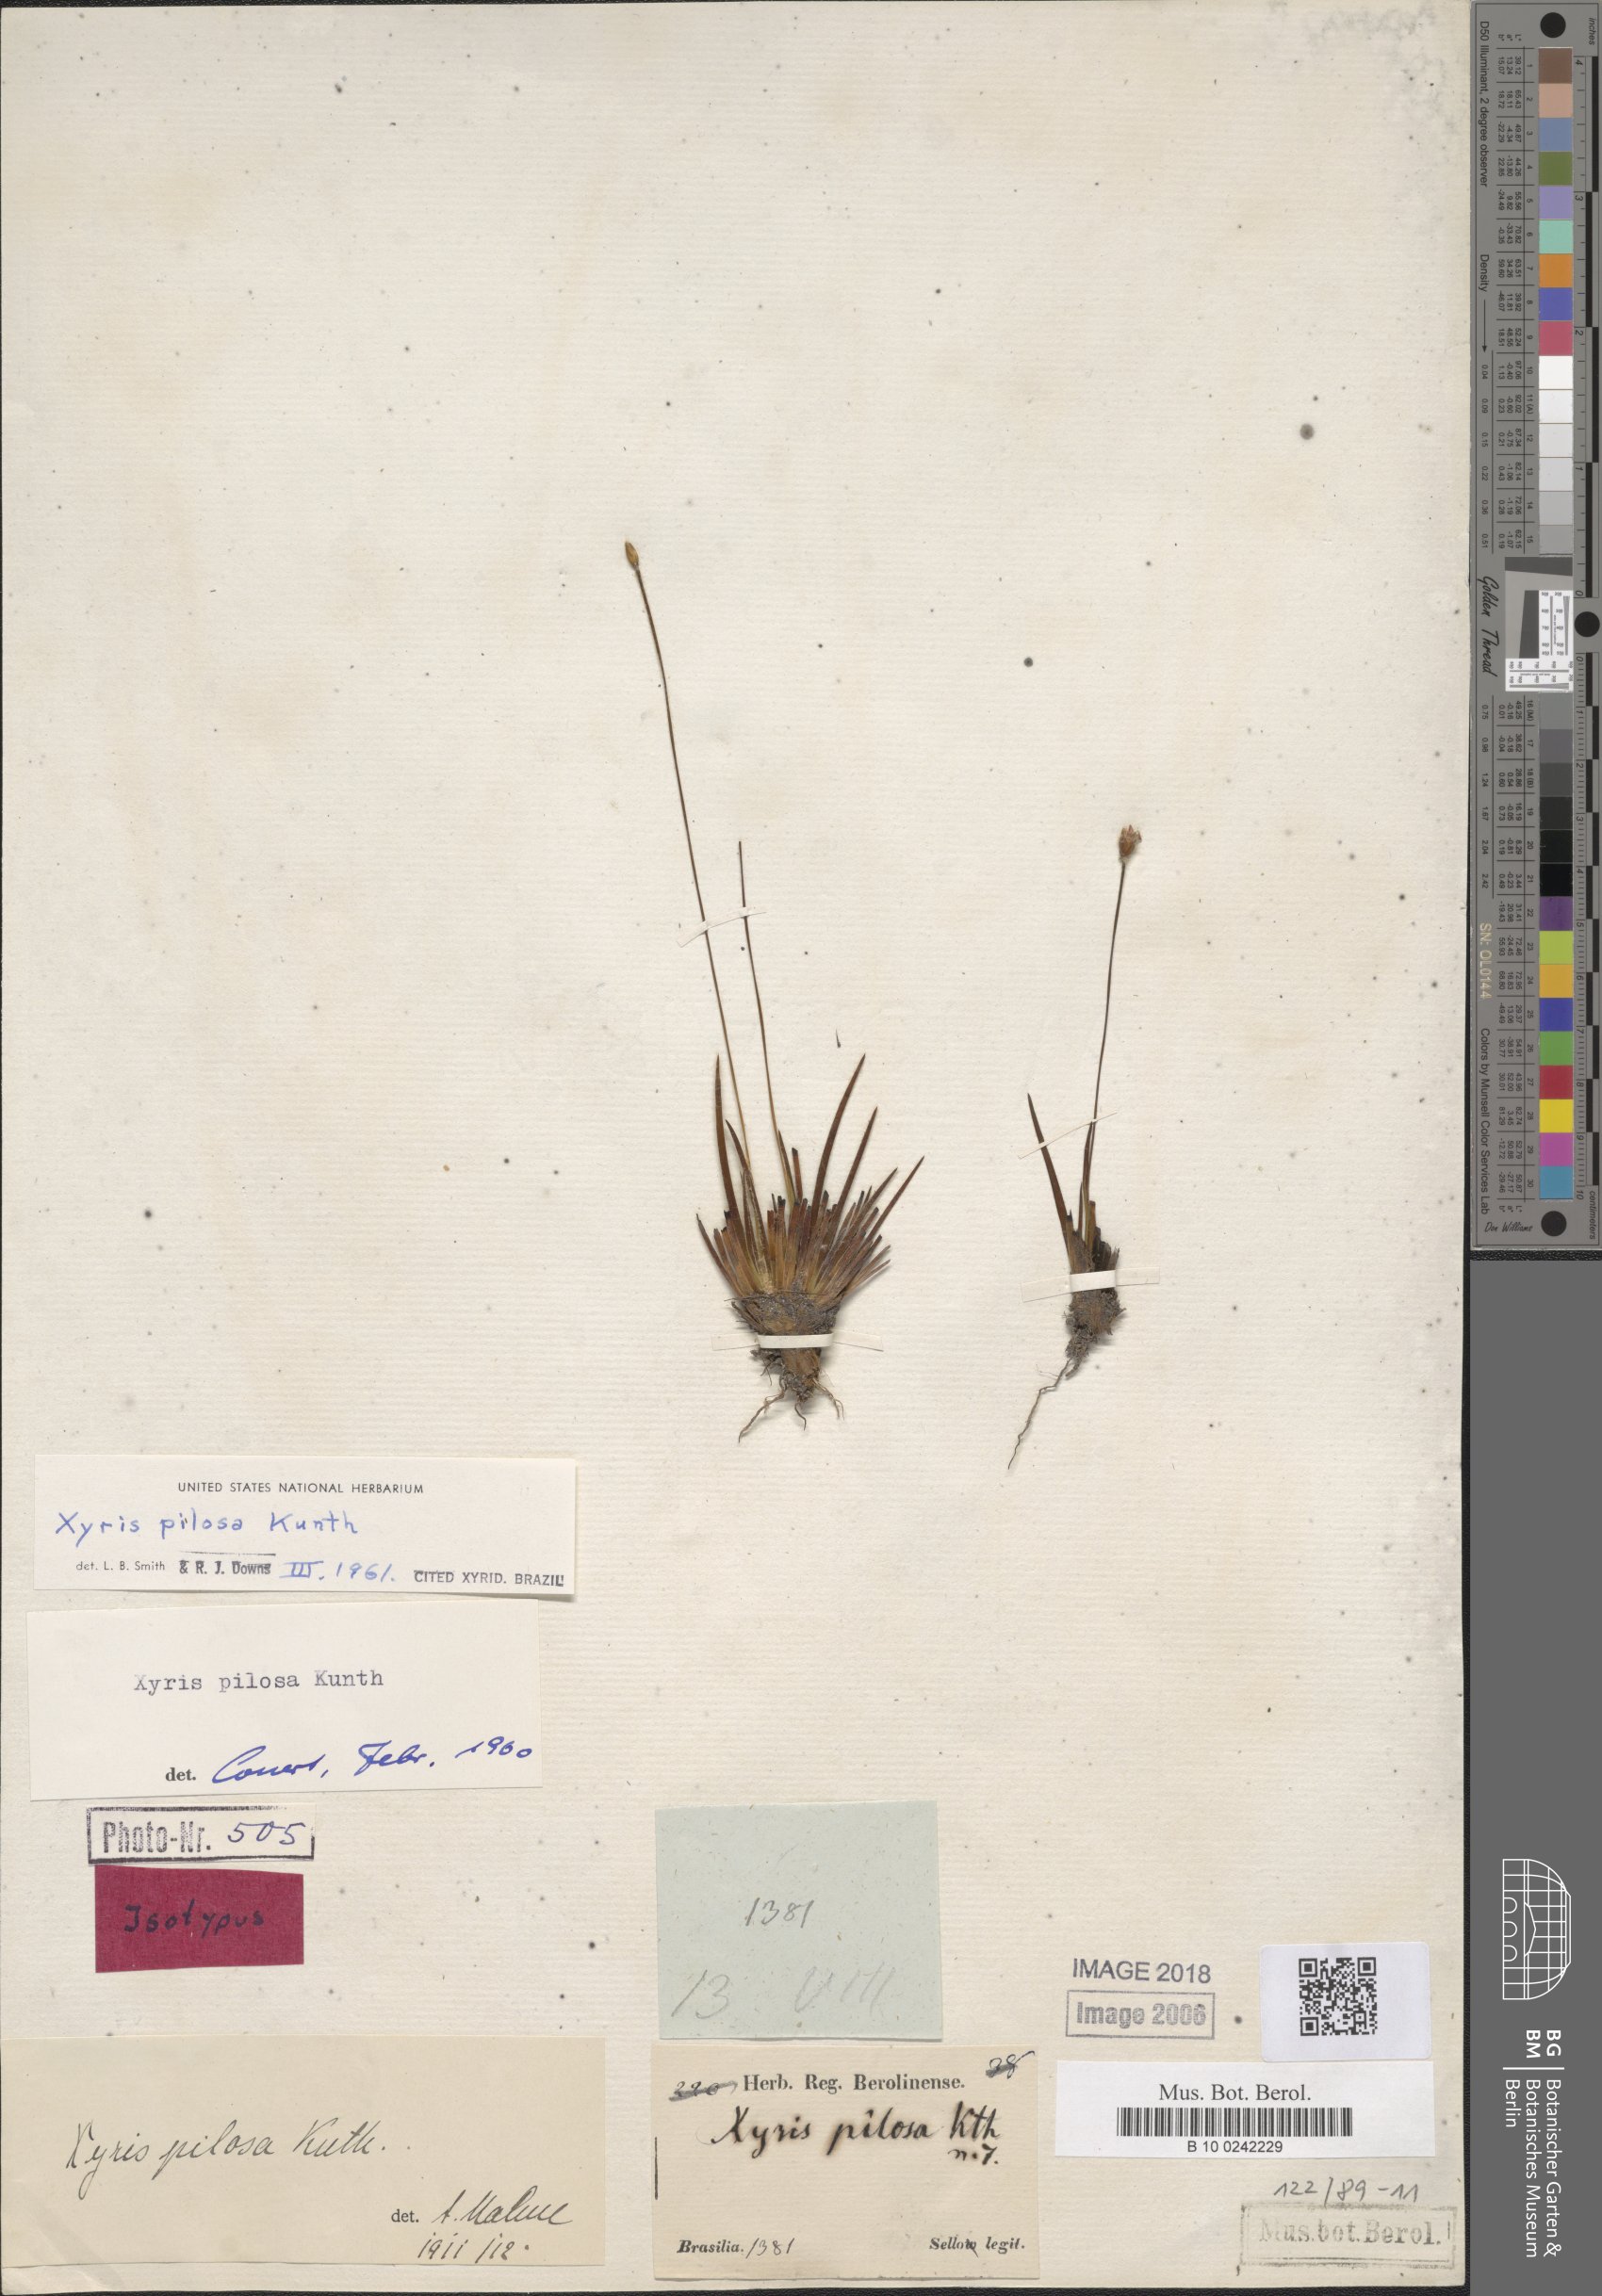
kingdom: Plantae
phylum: Tracheophyta
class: Liliopsida
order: Poales
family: Xyridaceae
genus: Xyris
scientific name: Xyris pilosa
